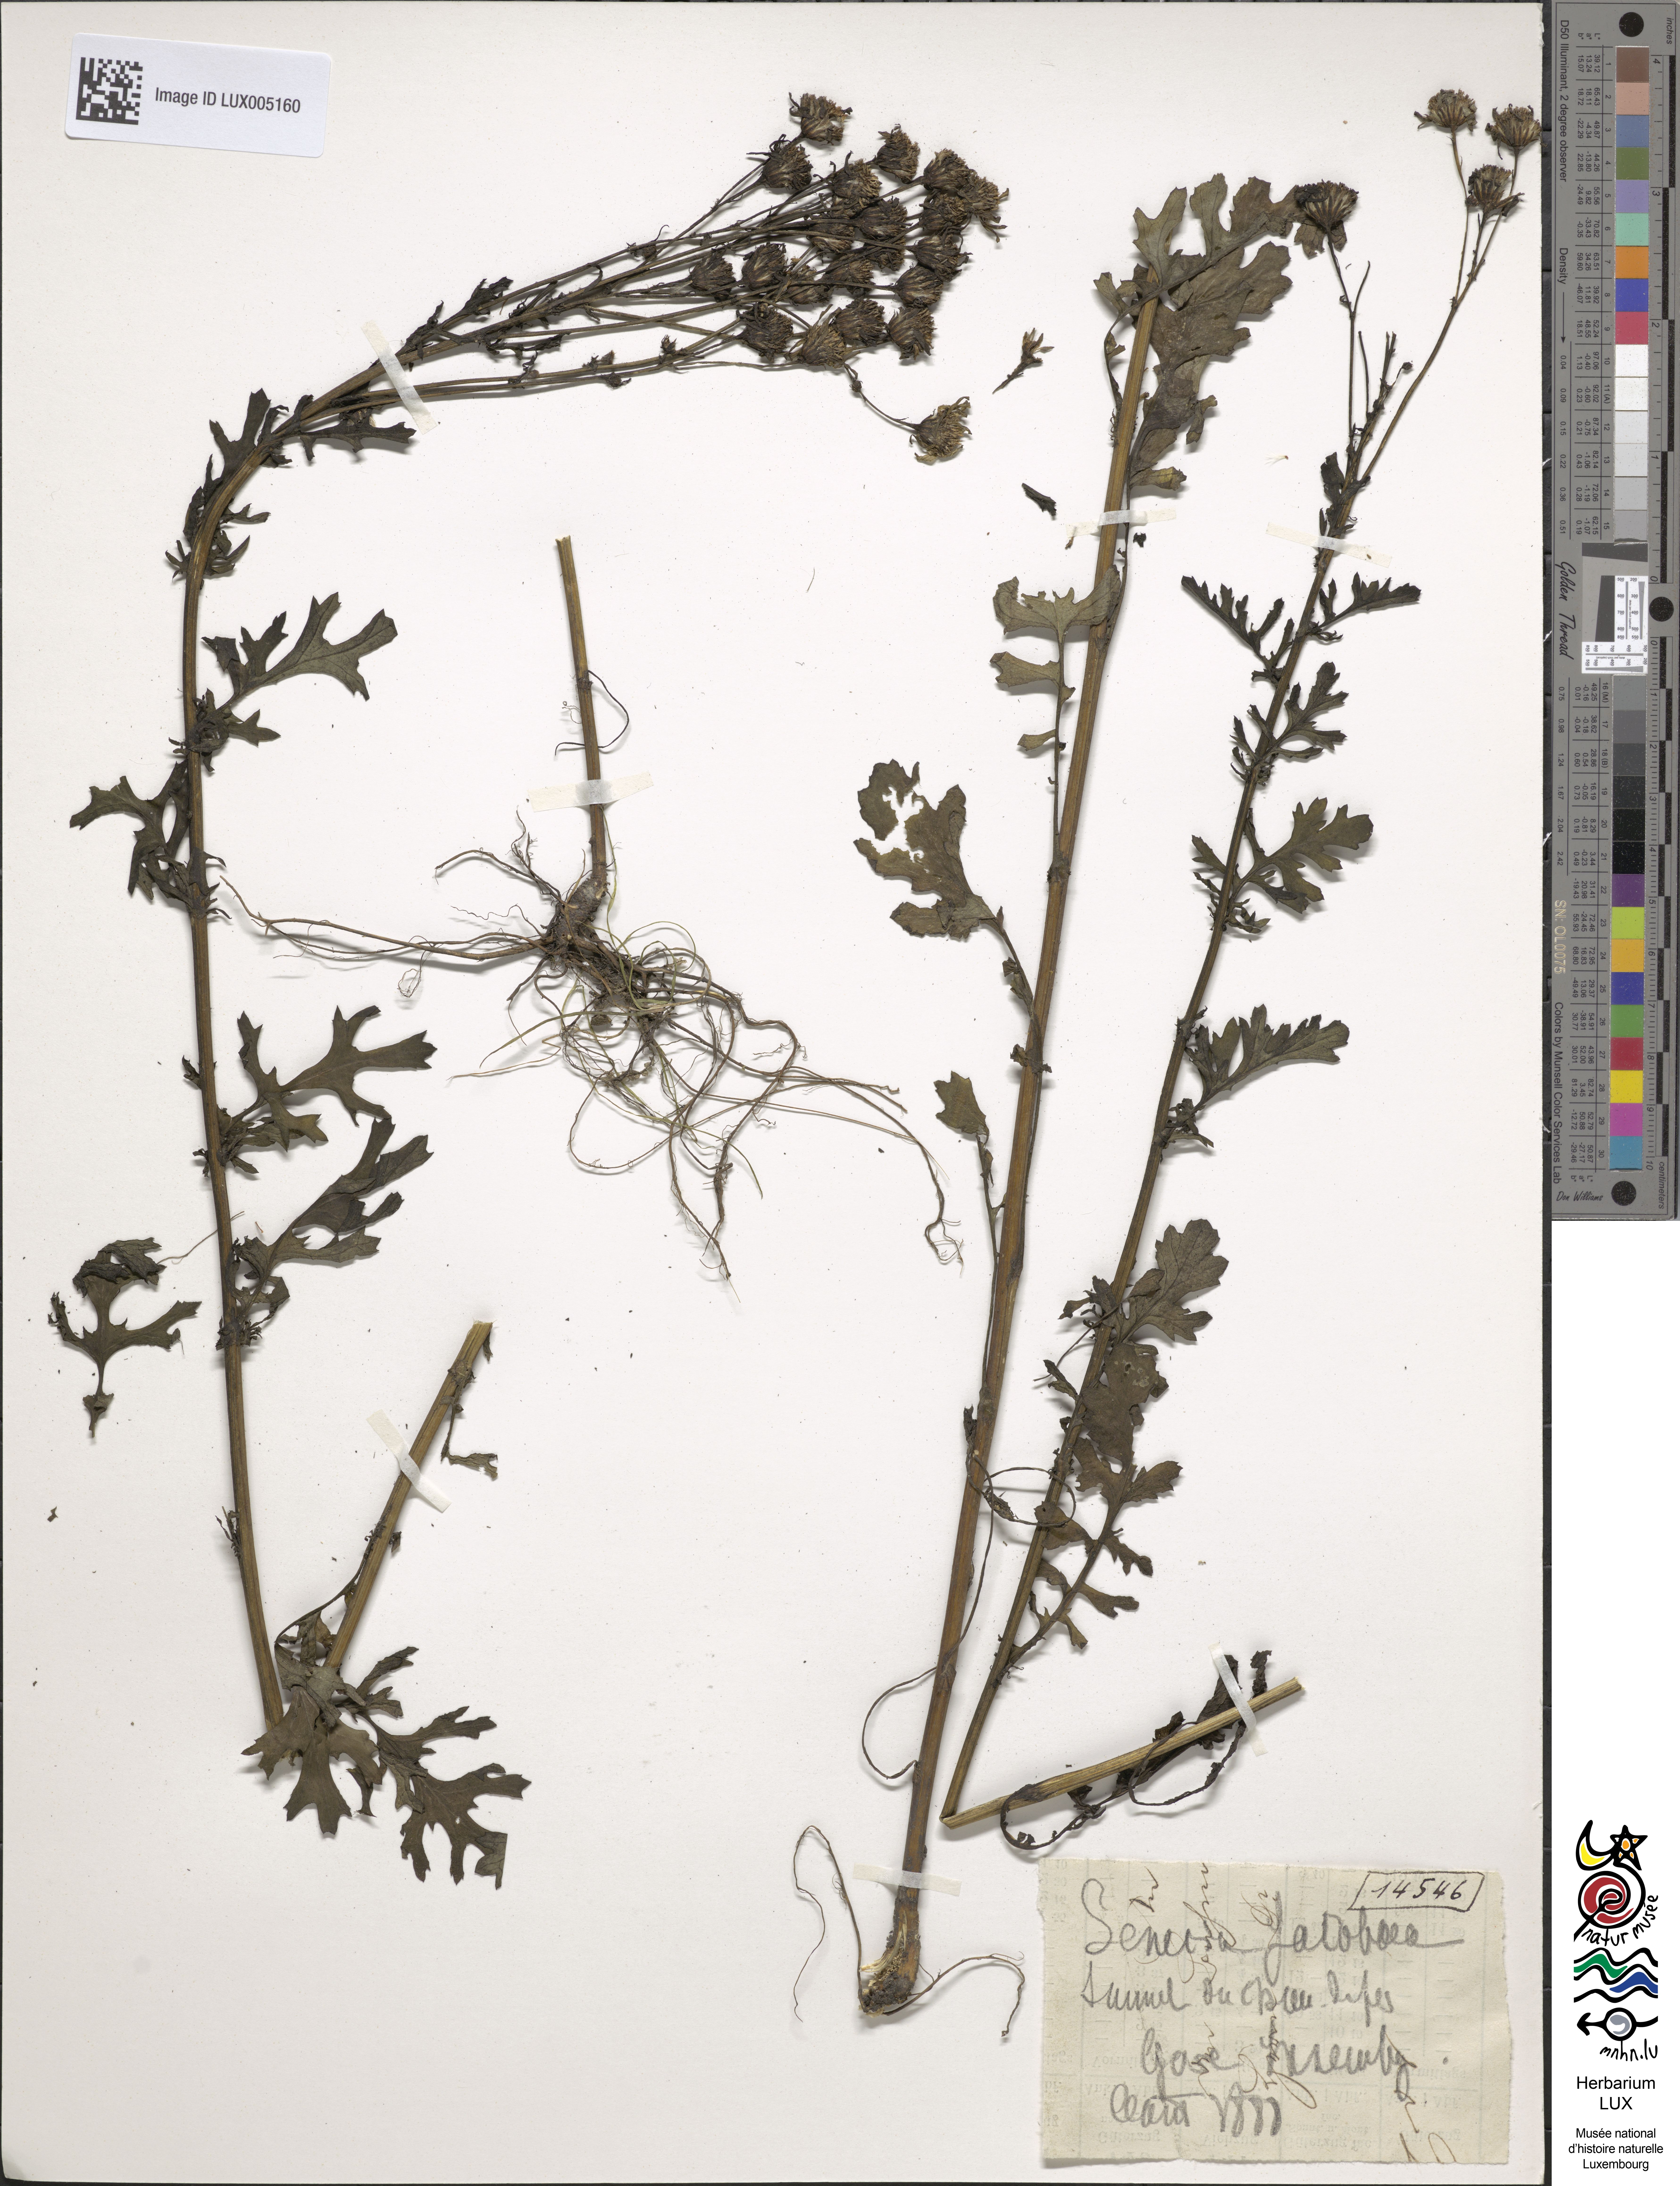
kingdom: Plantae
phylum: Tracheophyta
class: Magnoliopsida
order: Asterales
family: Asteraceae
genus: Jacobaea
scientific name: Jacobaea vulgaris
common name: Stinking willie
